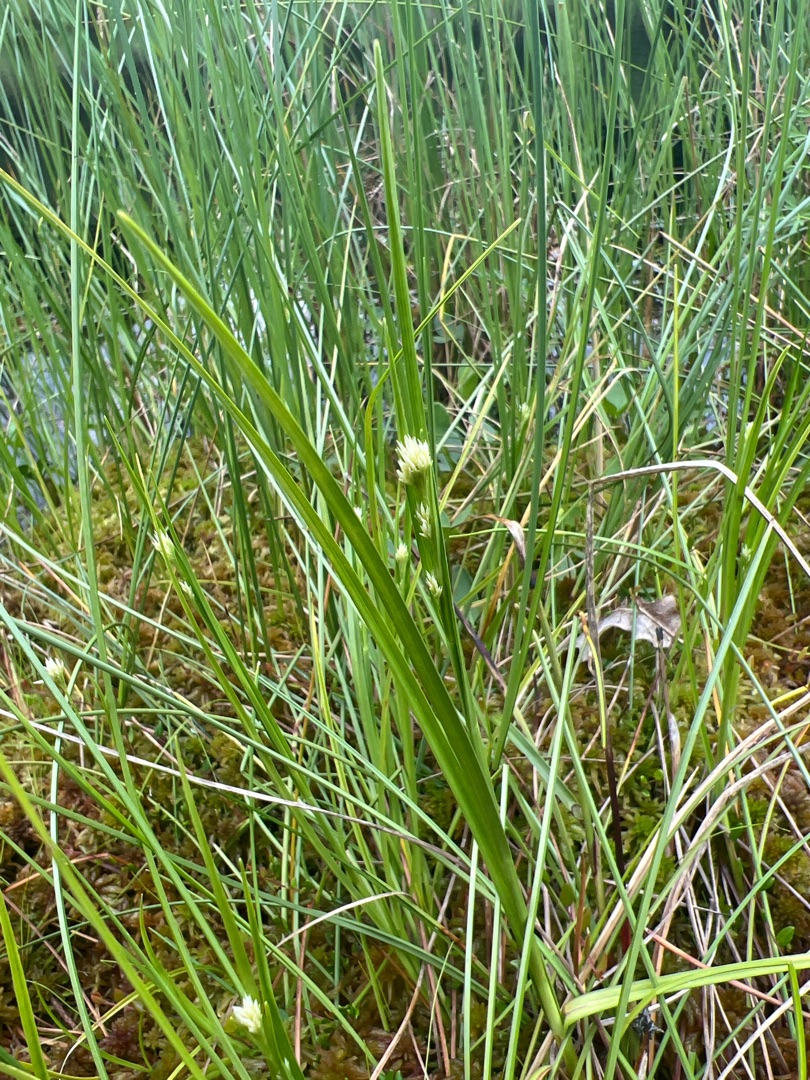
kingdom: Plantae
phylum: Tracheophyta
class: Liliopsida
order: Poales
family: Cyperaceae
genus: Rhynchospora
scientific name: Rhynchospora alba
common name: Hvid næbfrø
